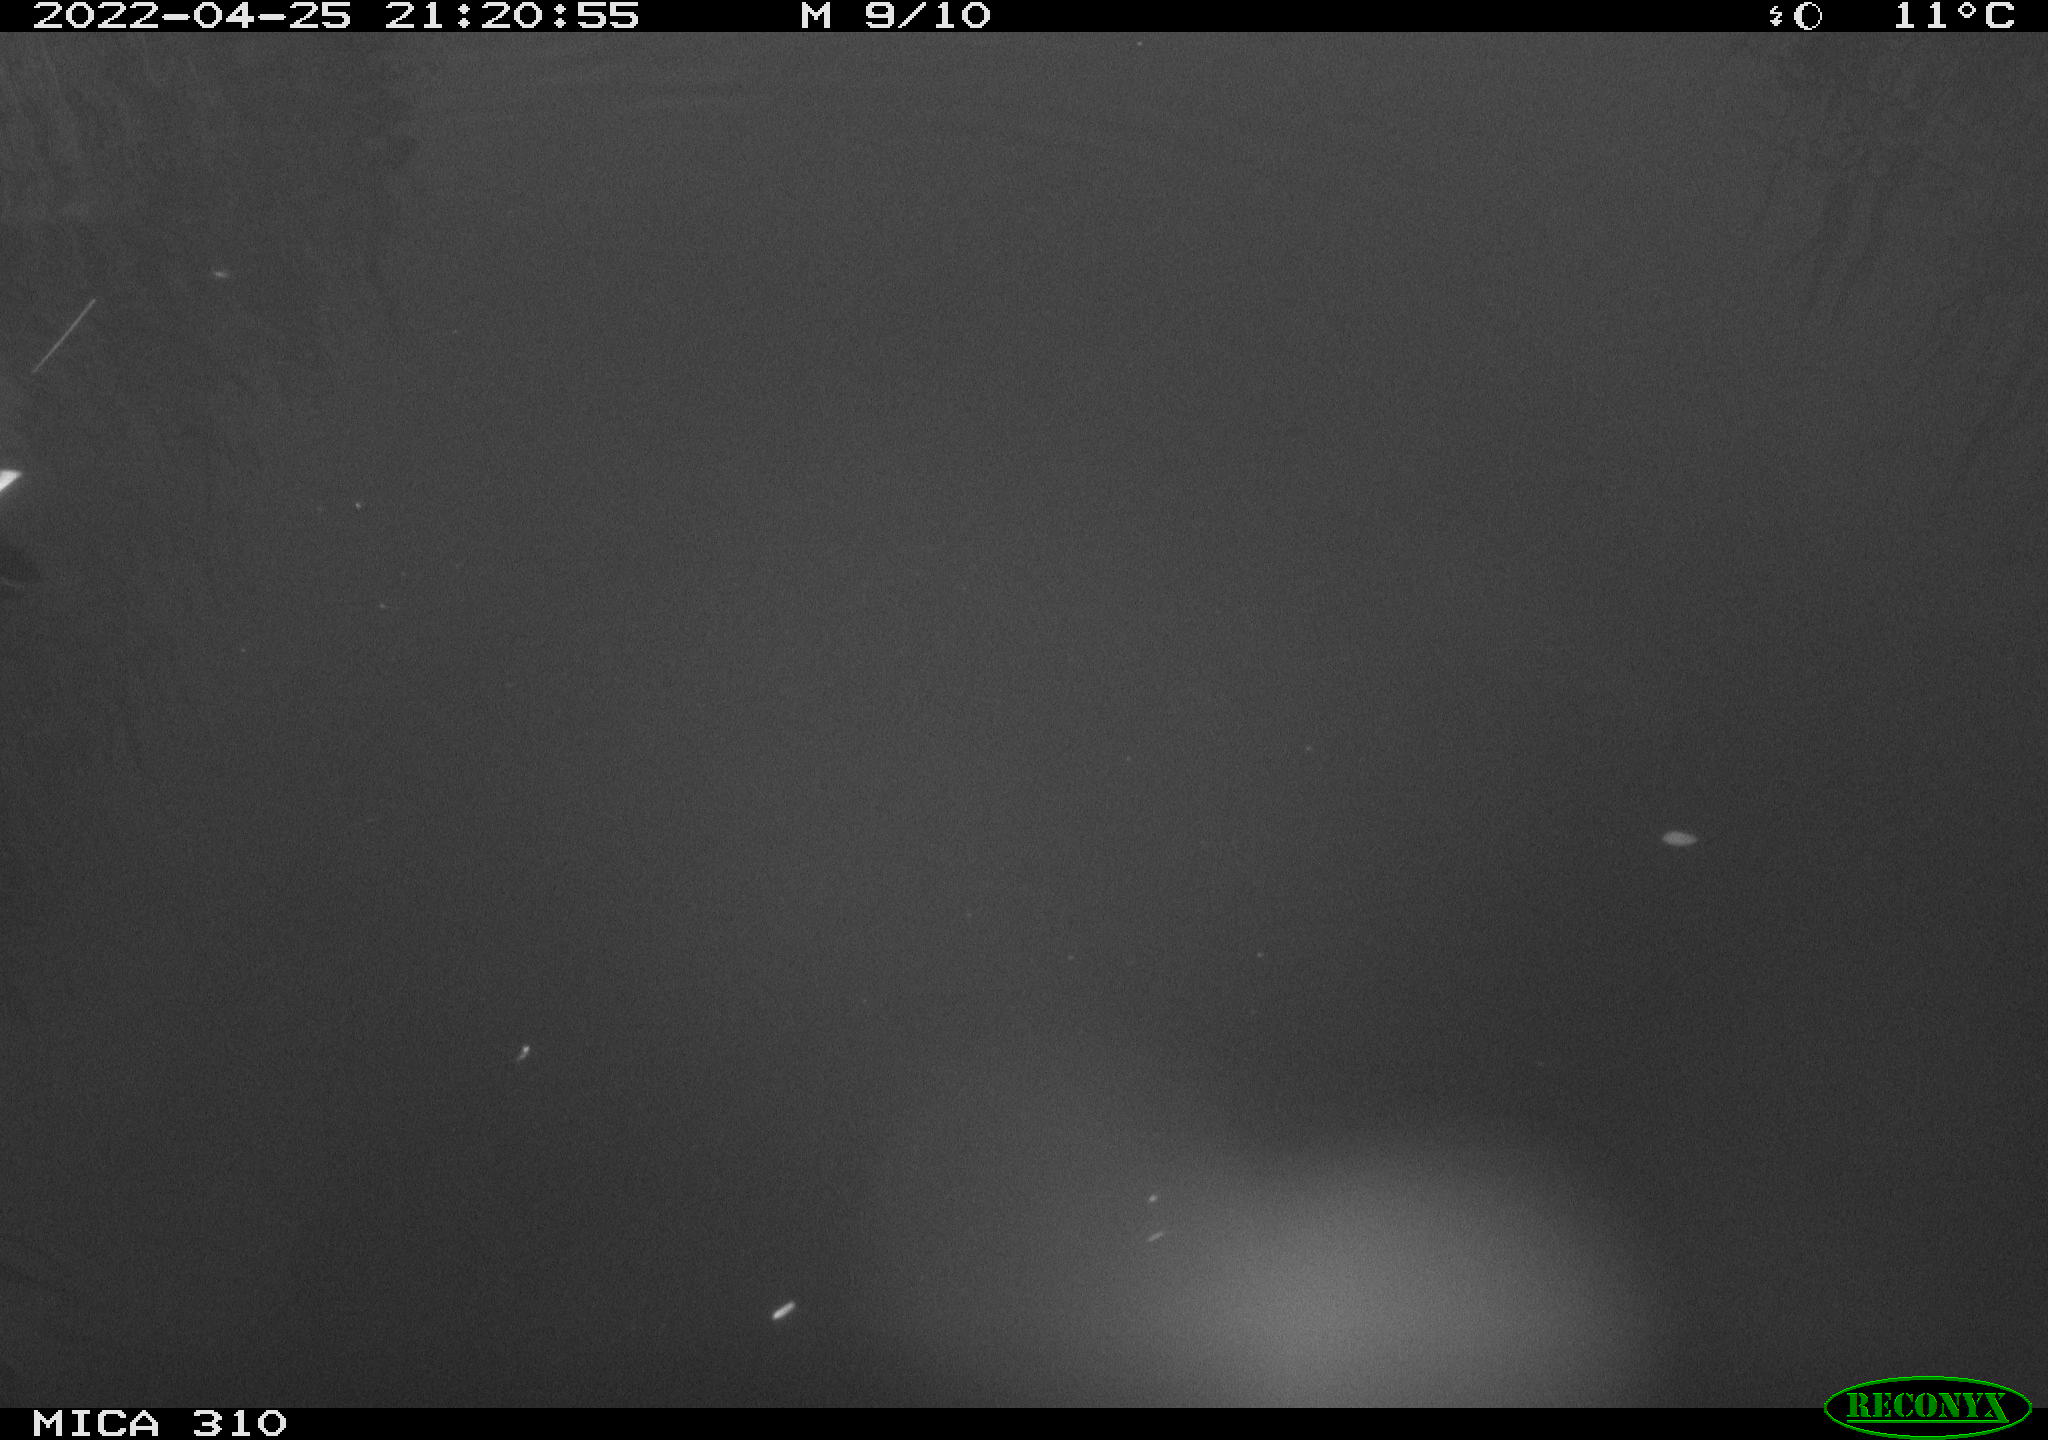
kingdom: Animalia
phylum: Chordata
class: Aves
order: Anseriformes
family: Anatidae
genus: Anas
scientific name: Anas platyrhynchos
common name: Mallard
